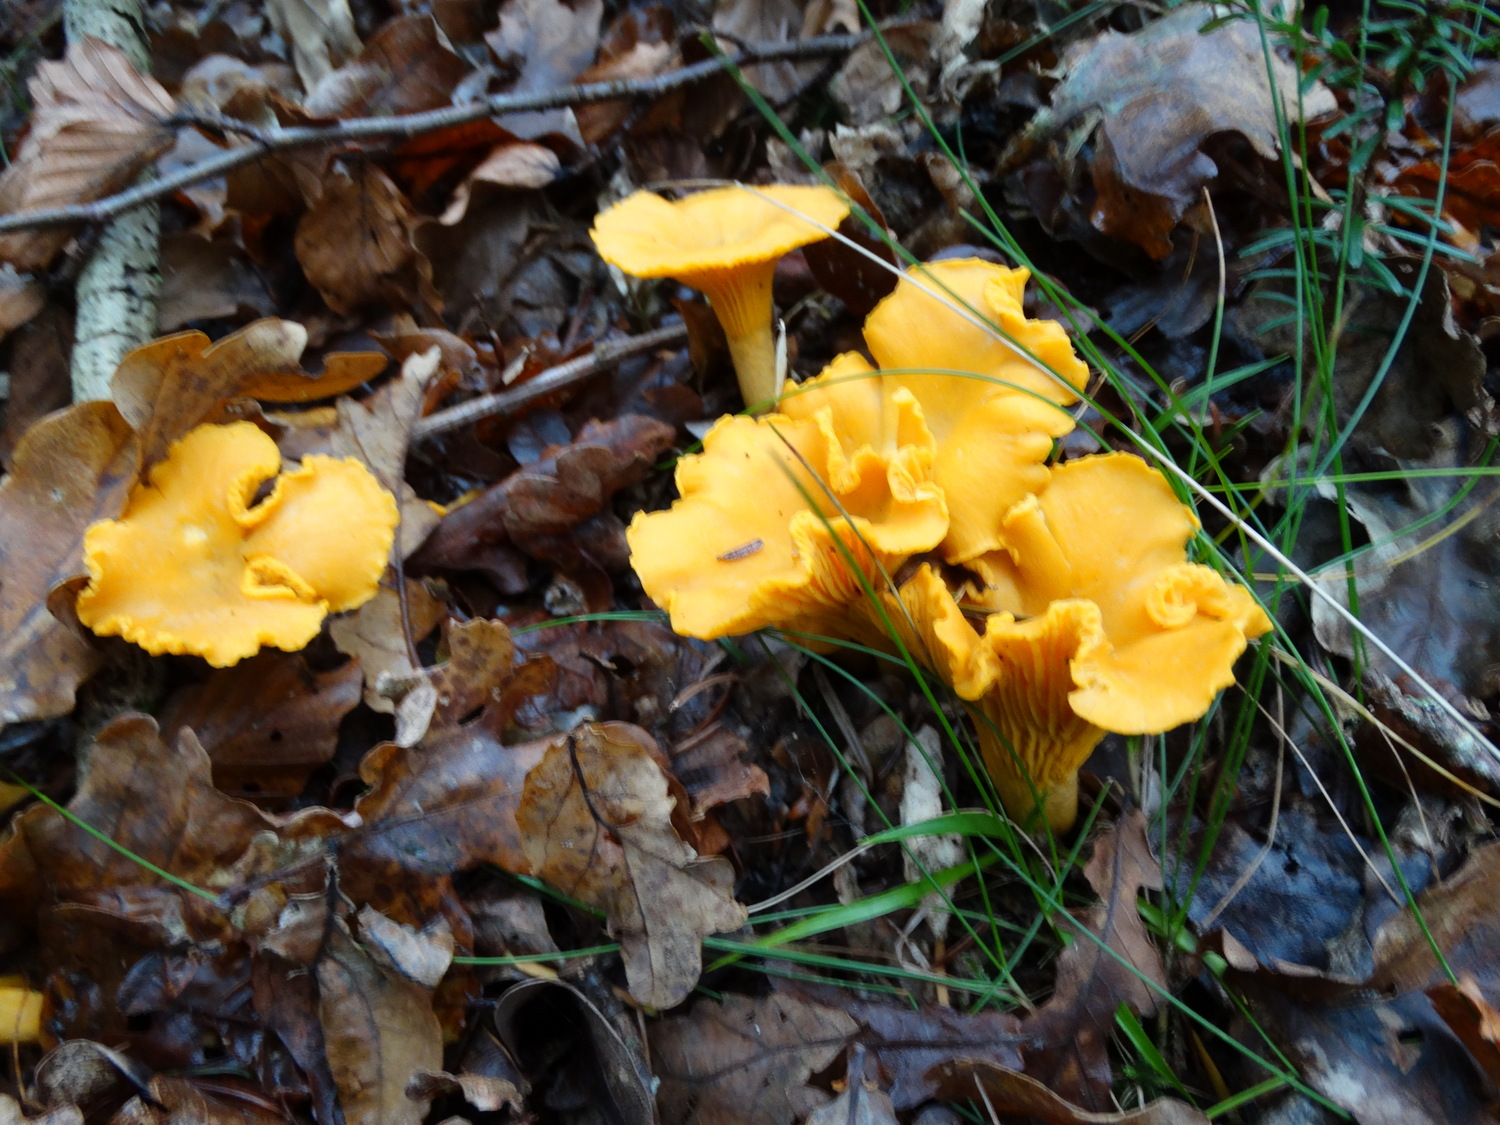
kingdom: Fungi
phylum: Basidiomycota
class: Agaricomycetes
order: Cantharellales
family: Hydnaceae
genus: Cantharellus
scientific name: Cantharellus cibarius
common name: almindelig kantarel
